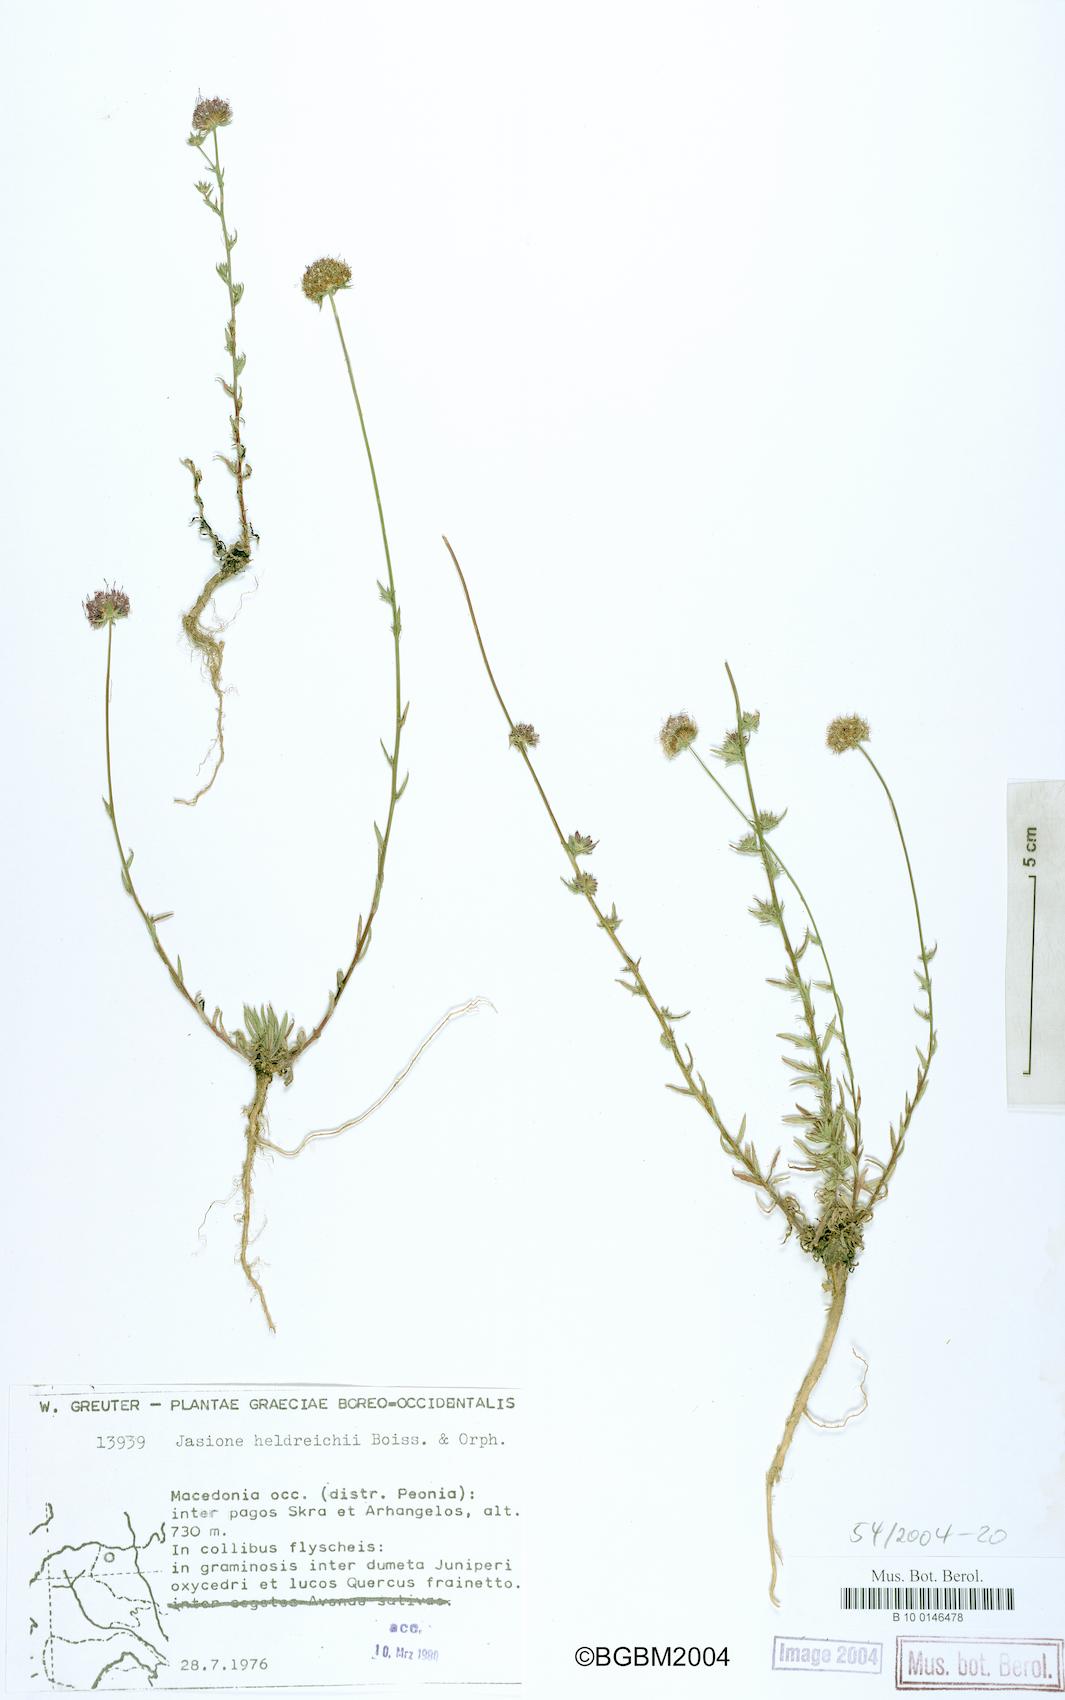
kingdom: Plantae
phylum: Tracheophyta
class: Magnoliopsida
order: Asterales
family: Campanulaceae
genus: Jasione
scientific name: Jasione heldreichii
